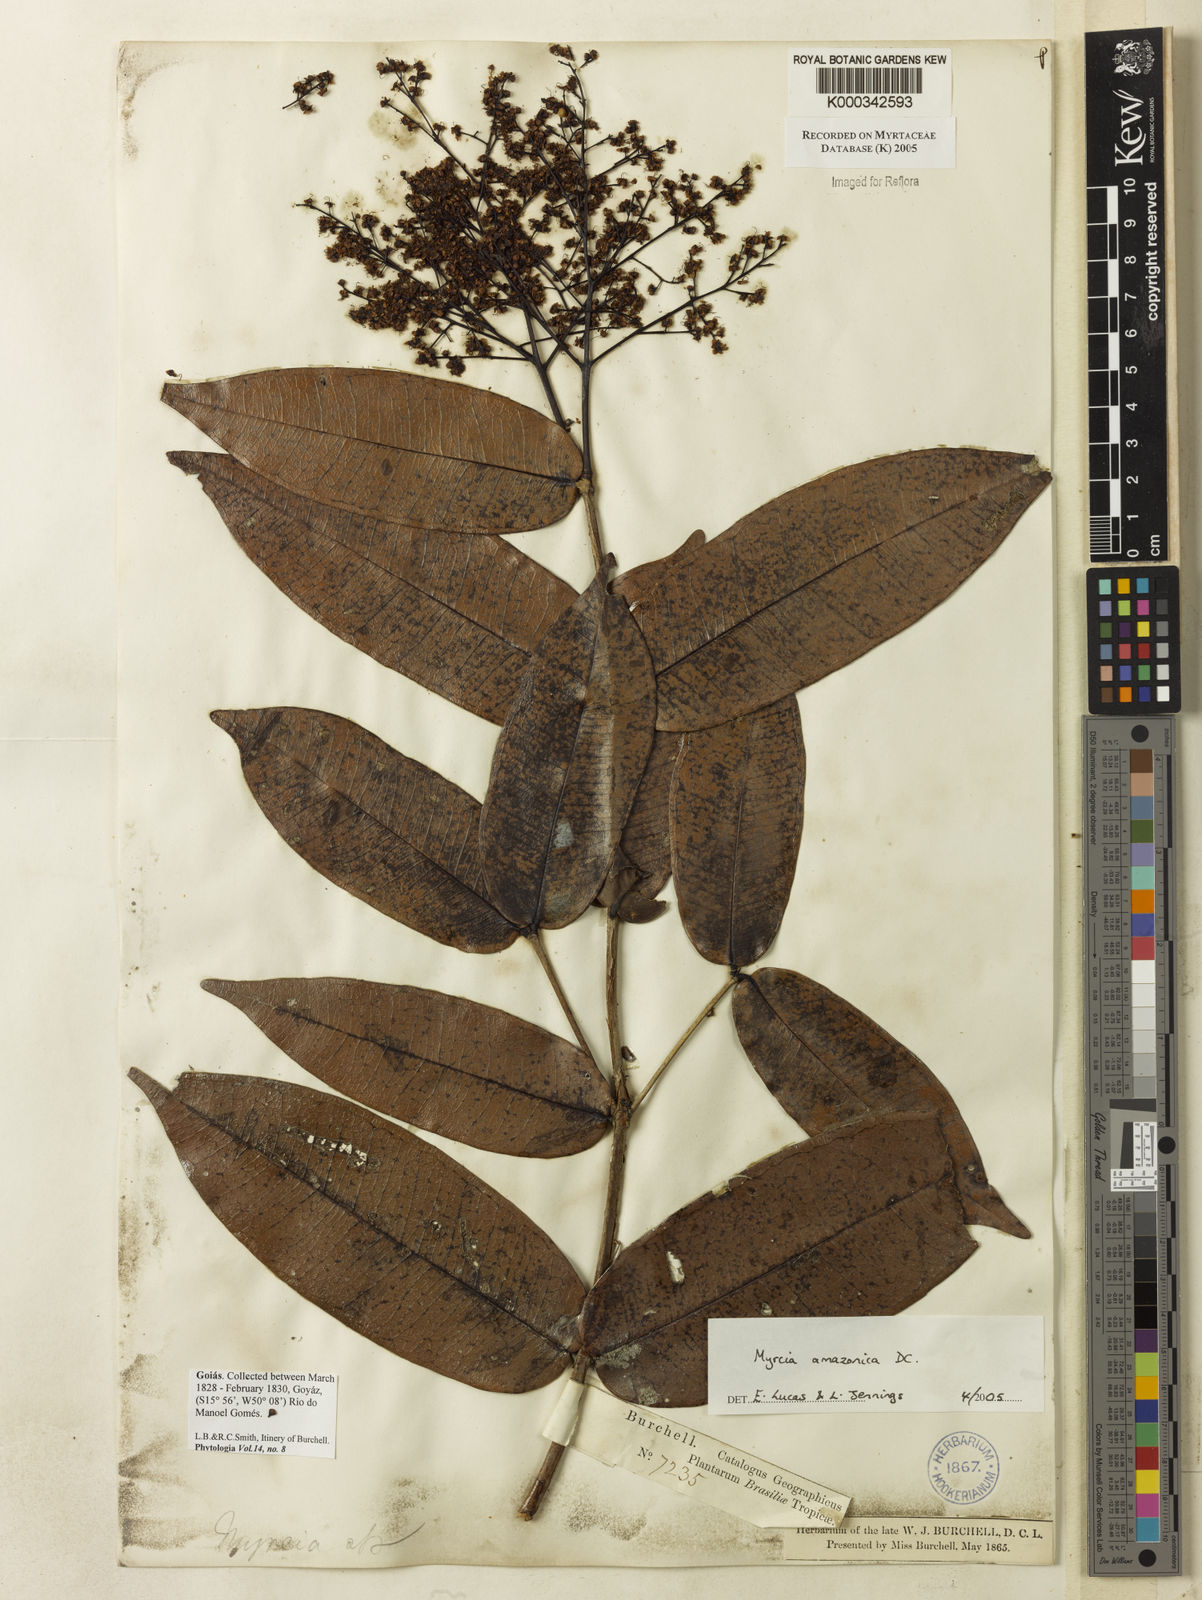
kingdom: Plantae
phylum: Tracheophyta
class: Magnoliopsida
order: Myrtales
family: Myrtaceae
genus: Myrcia
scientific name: Myrcia amazonica
